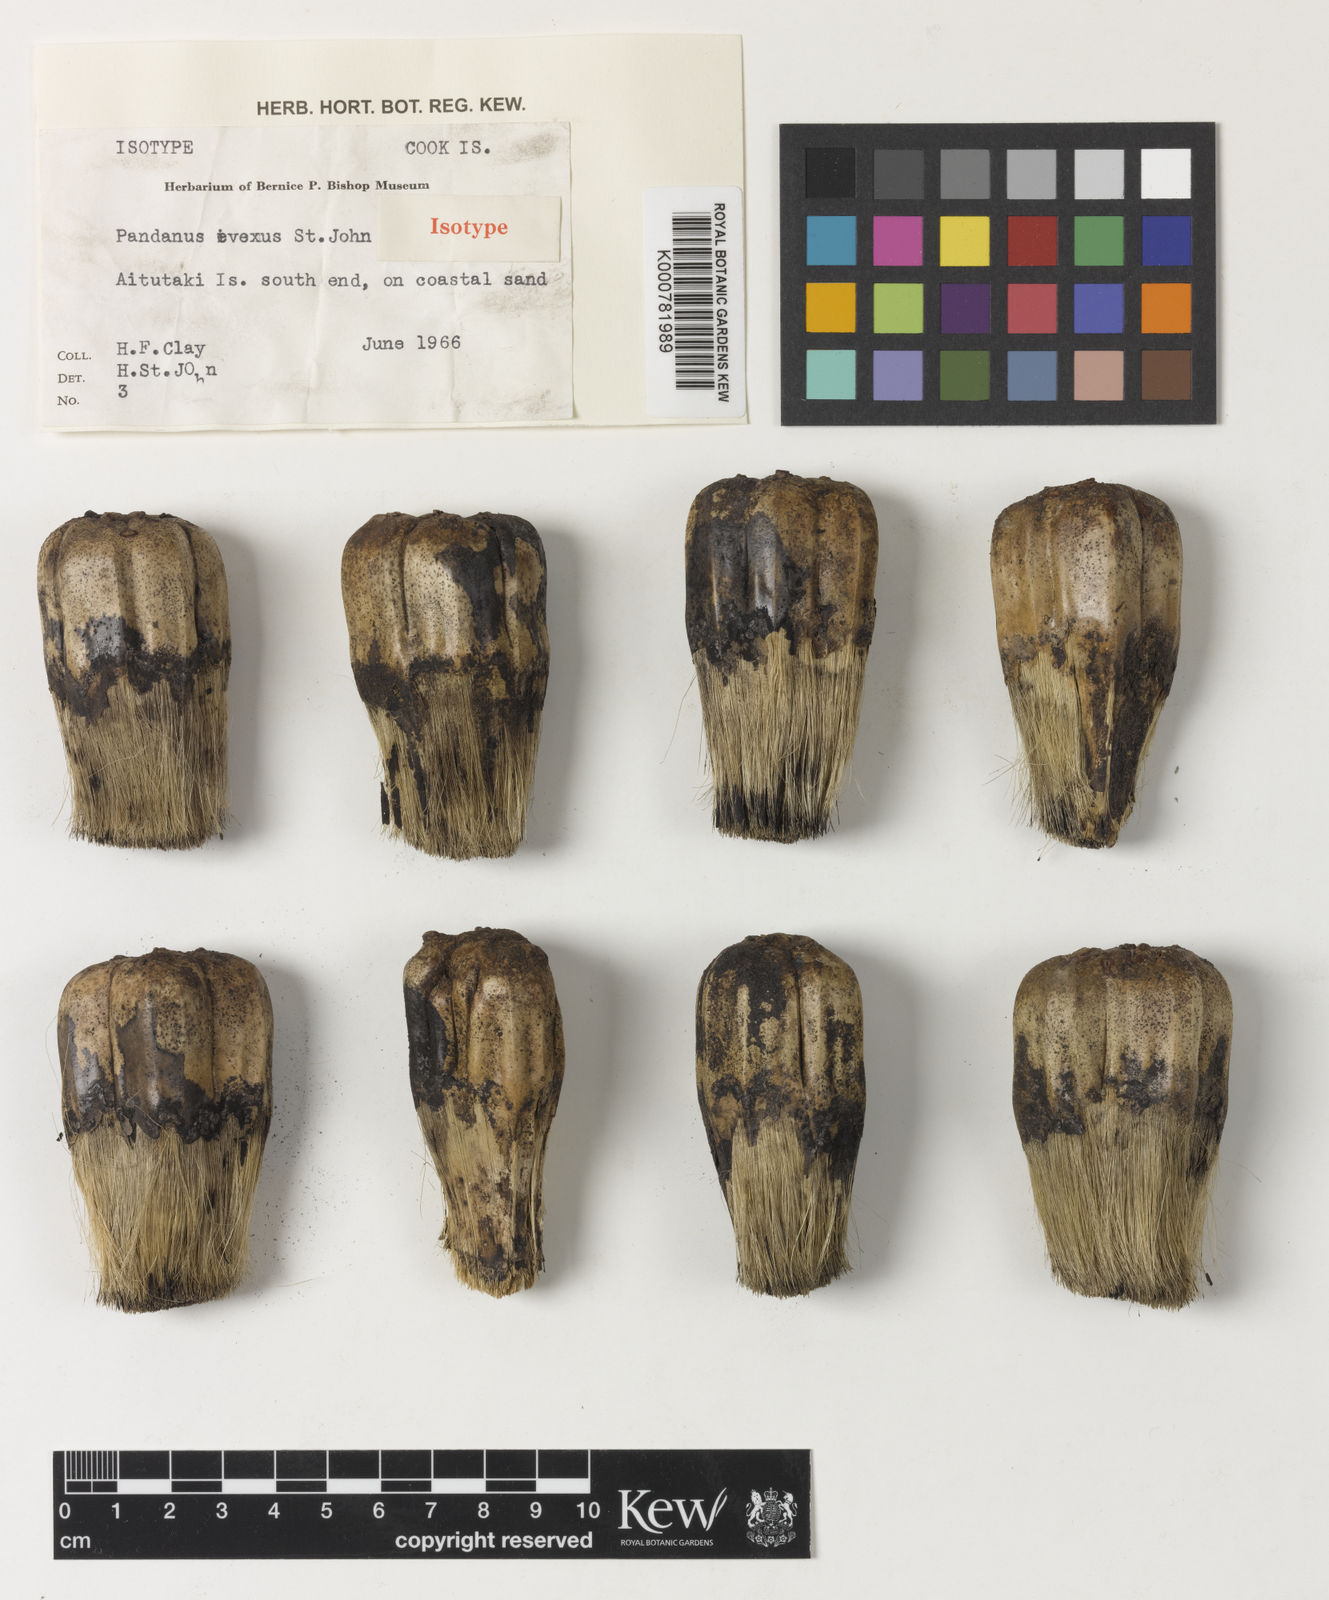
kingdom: Plantae
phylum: Tracheophyta
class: Liliopsida
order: Pandanales
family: Pandanaceae
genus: Pandanus
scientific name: Pandanus tectorius
